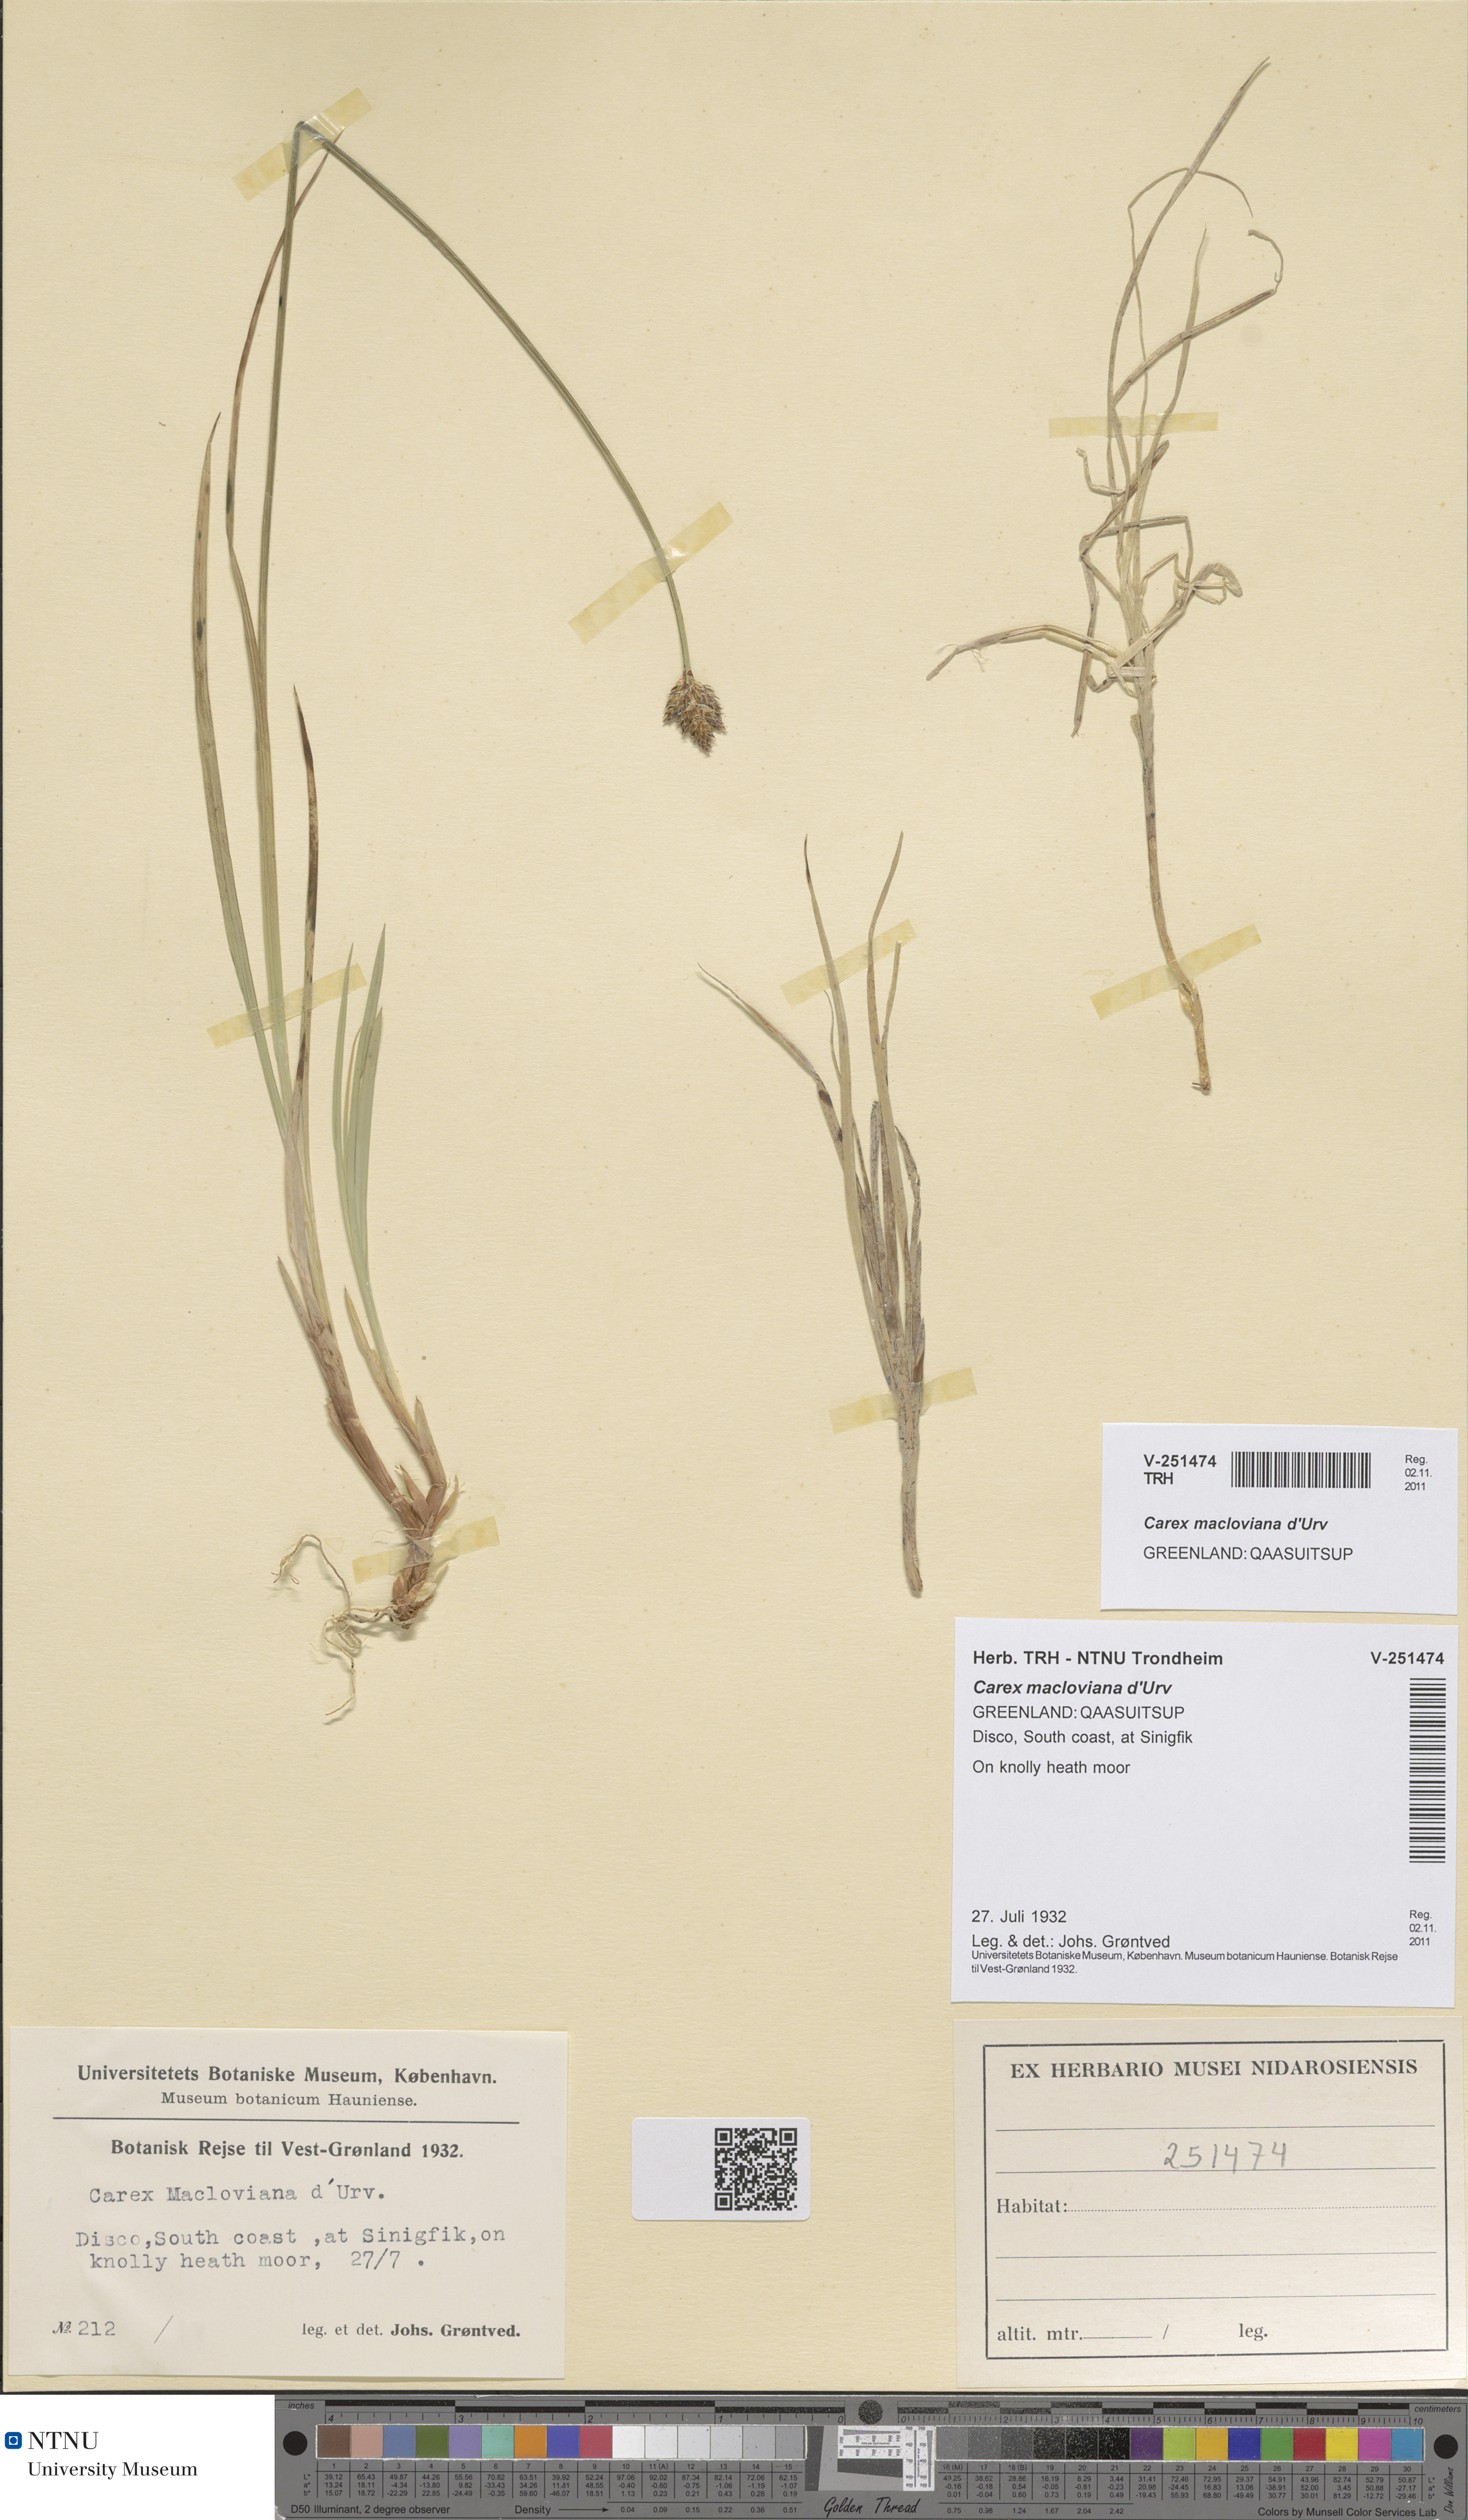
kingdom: Plantae
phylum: Tracheophyta
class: Liliopsida
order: Poales
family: Cyperaceae
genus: Carex
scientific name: Carex macloviana
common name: Falkland island sedge
